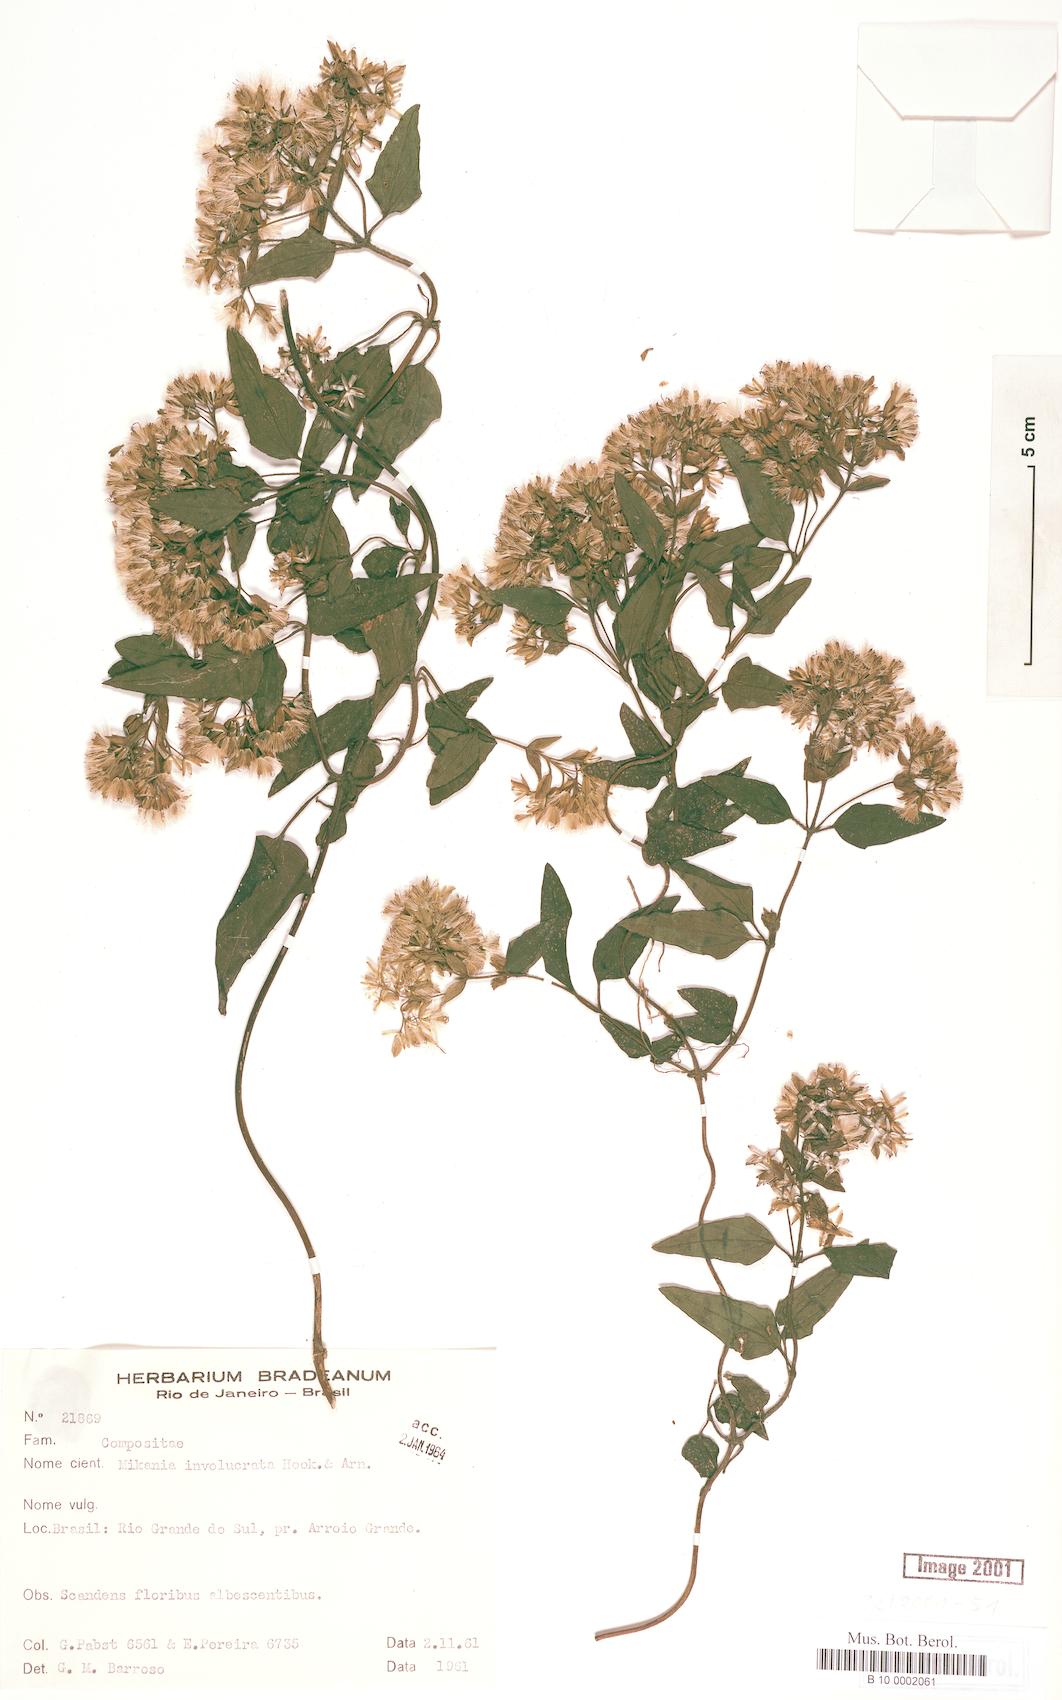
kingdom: Plantae
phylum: Tracheophyta
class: Magnoliopsida
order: Asterales
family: Asteraceae
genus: Mikania
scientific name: Mikania involucrata
